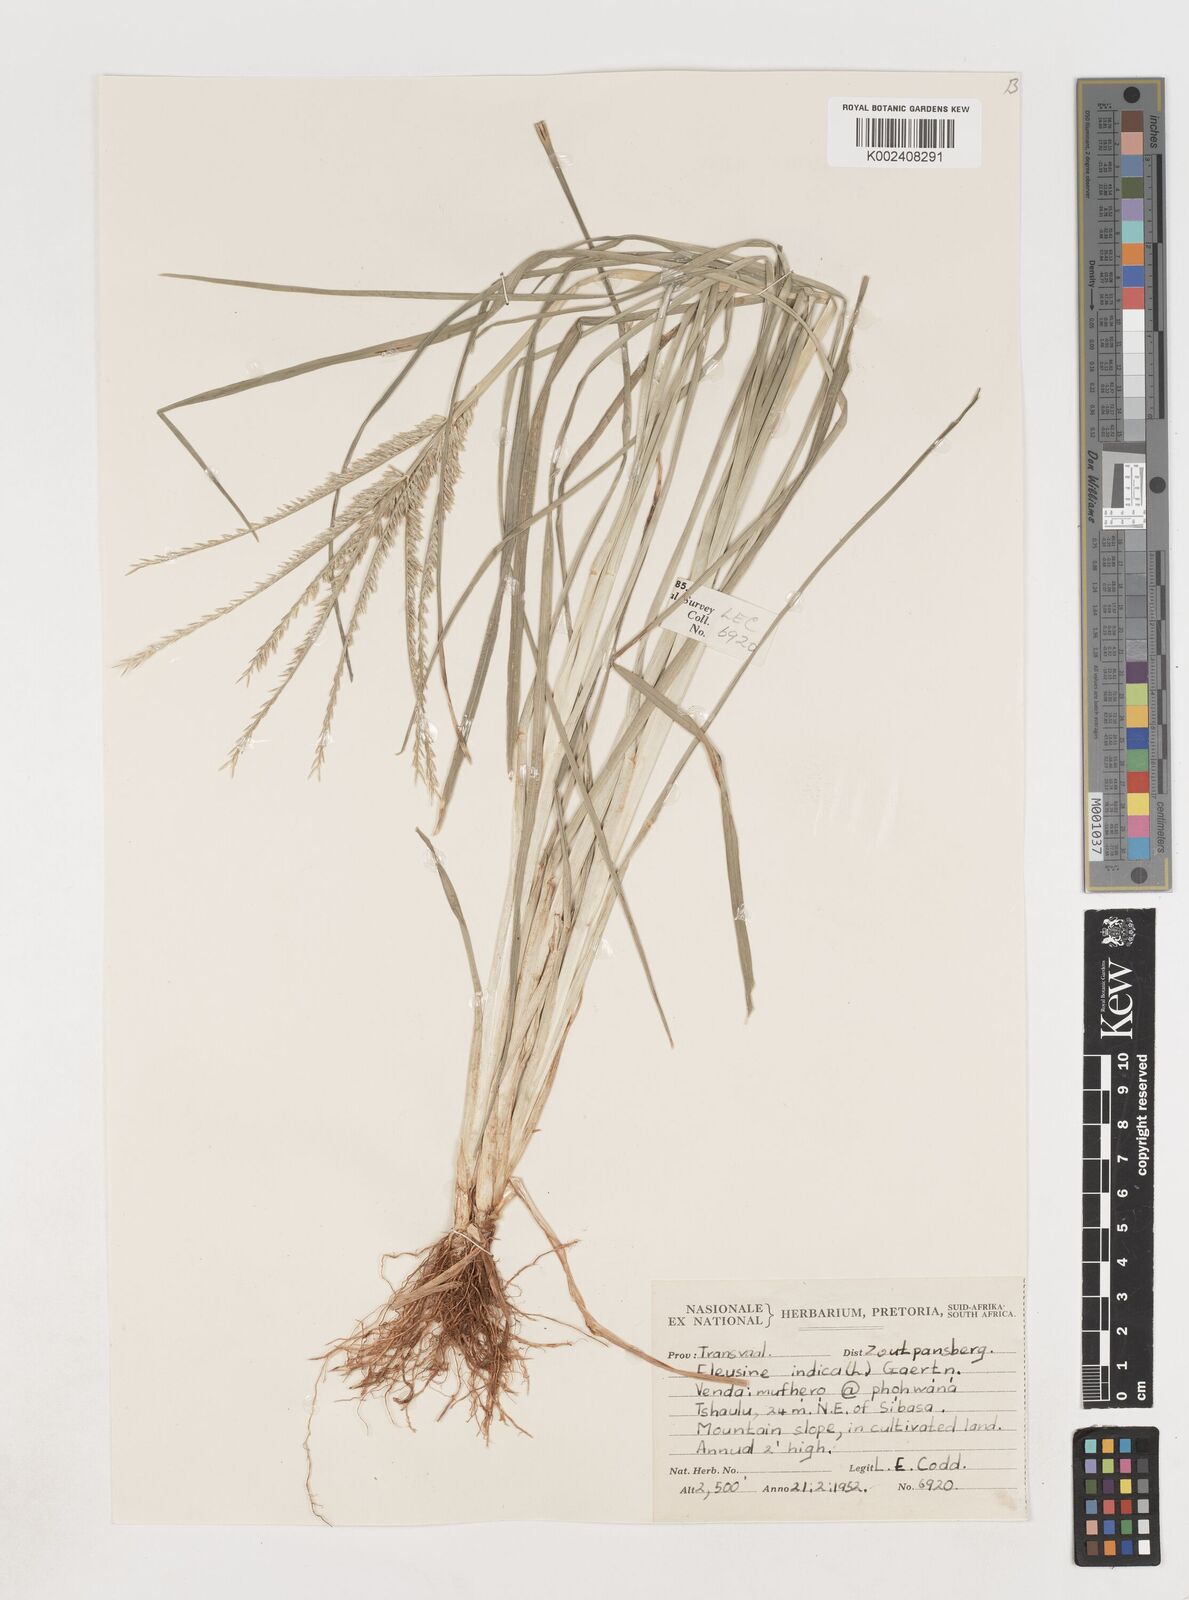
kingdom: Plantae
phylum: Tracheophyta
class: Liliopsida
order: Poales
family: Poaceae
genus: Eleusine
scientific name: Eleusine africana
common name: Wild african finger millet
